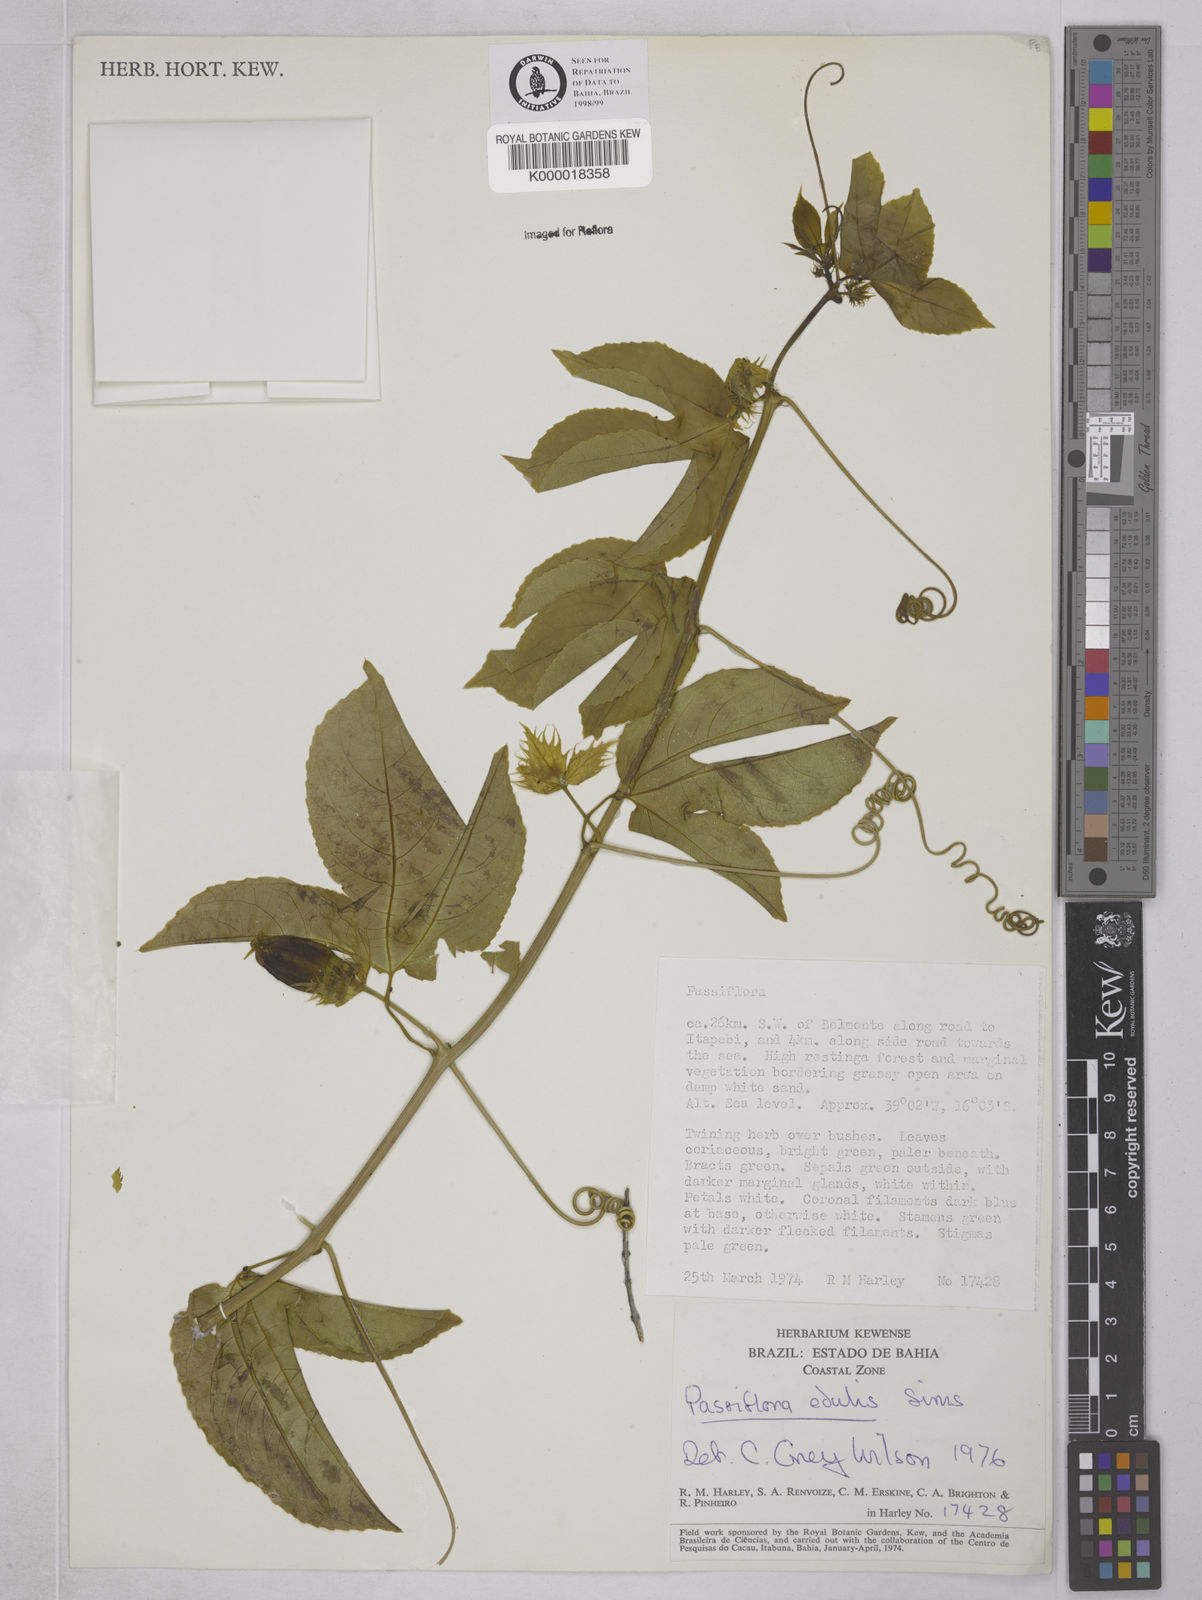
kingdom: Plantae
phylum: Tracheophyta
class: Magnoliopsida
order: Malpighiales
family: Passifloraceae
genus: Passiflora
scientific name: Passiflora edulis
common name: Purple granadilla
